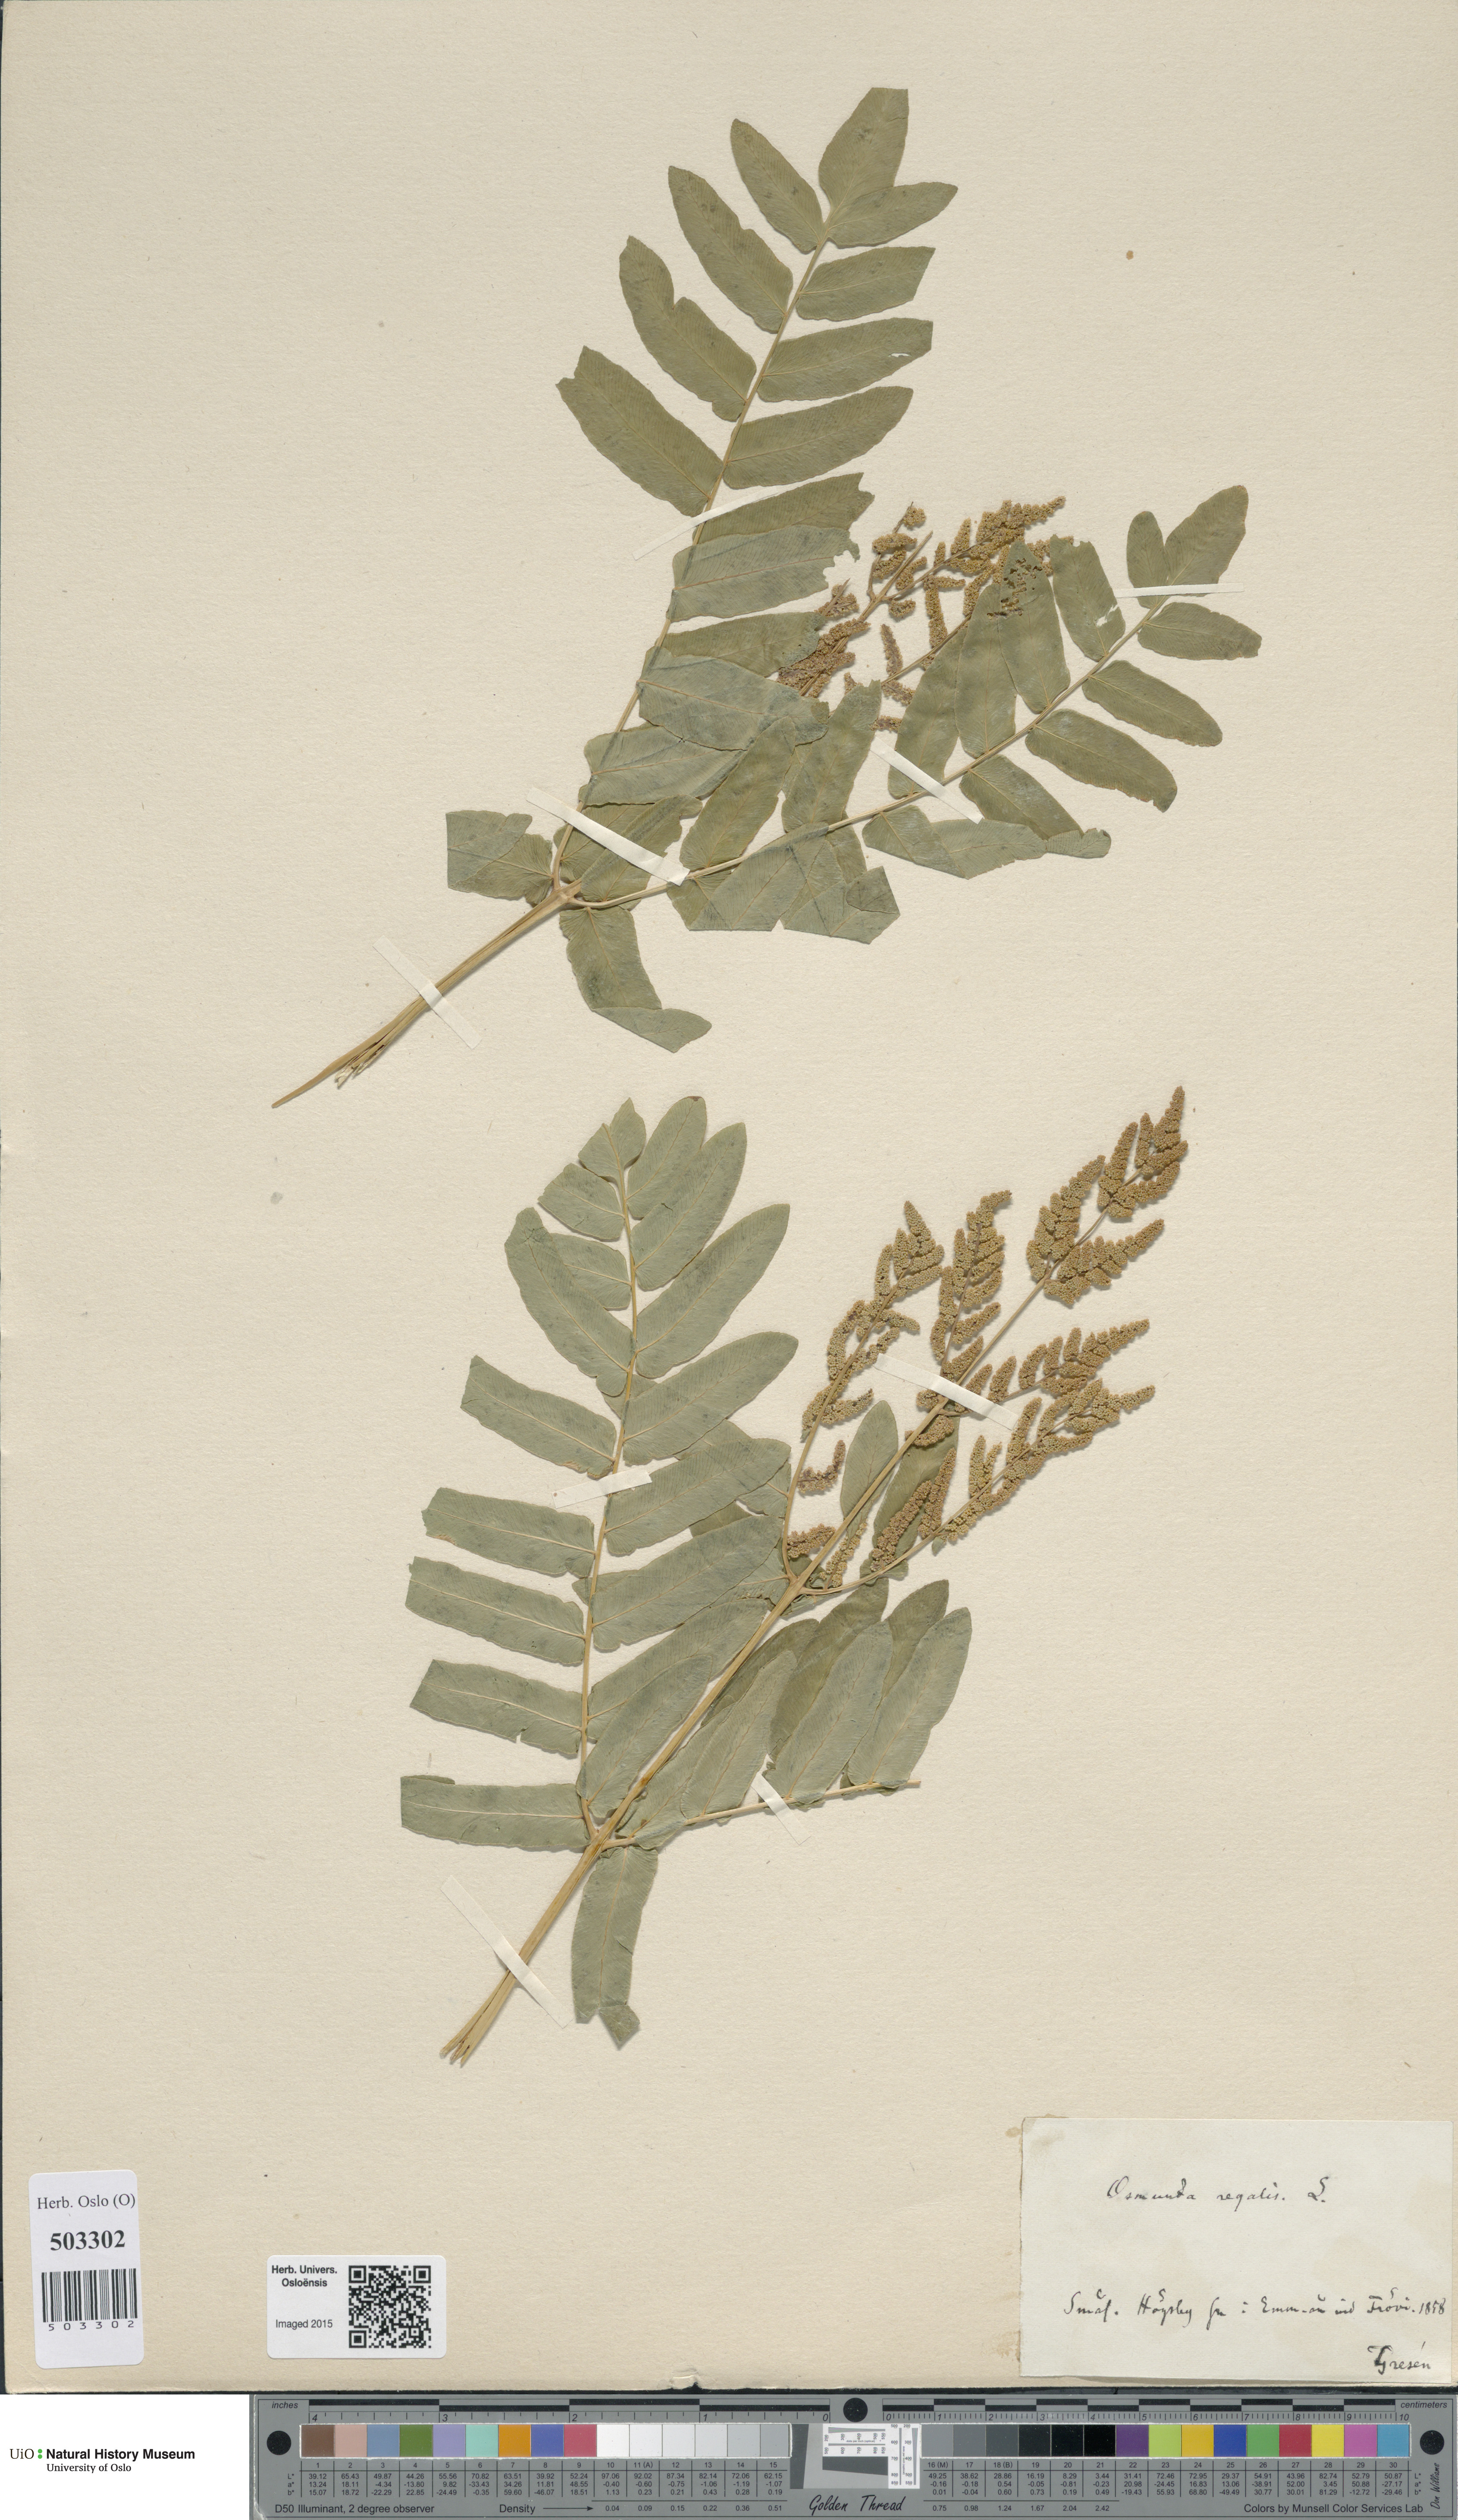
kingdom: Plantae
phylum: Tracheophyta
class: Polypodiopsida
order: Osmundales
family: Osmundaceae
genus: Osmunda
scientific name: Osmunda regalis
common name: Royal fern
